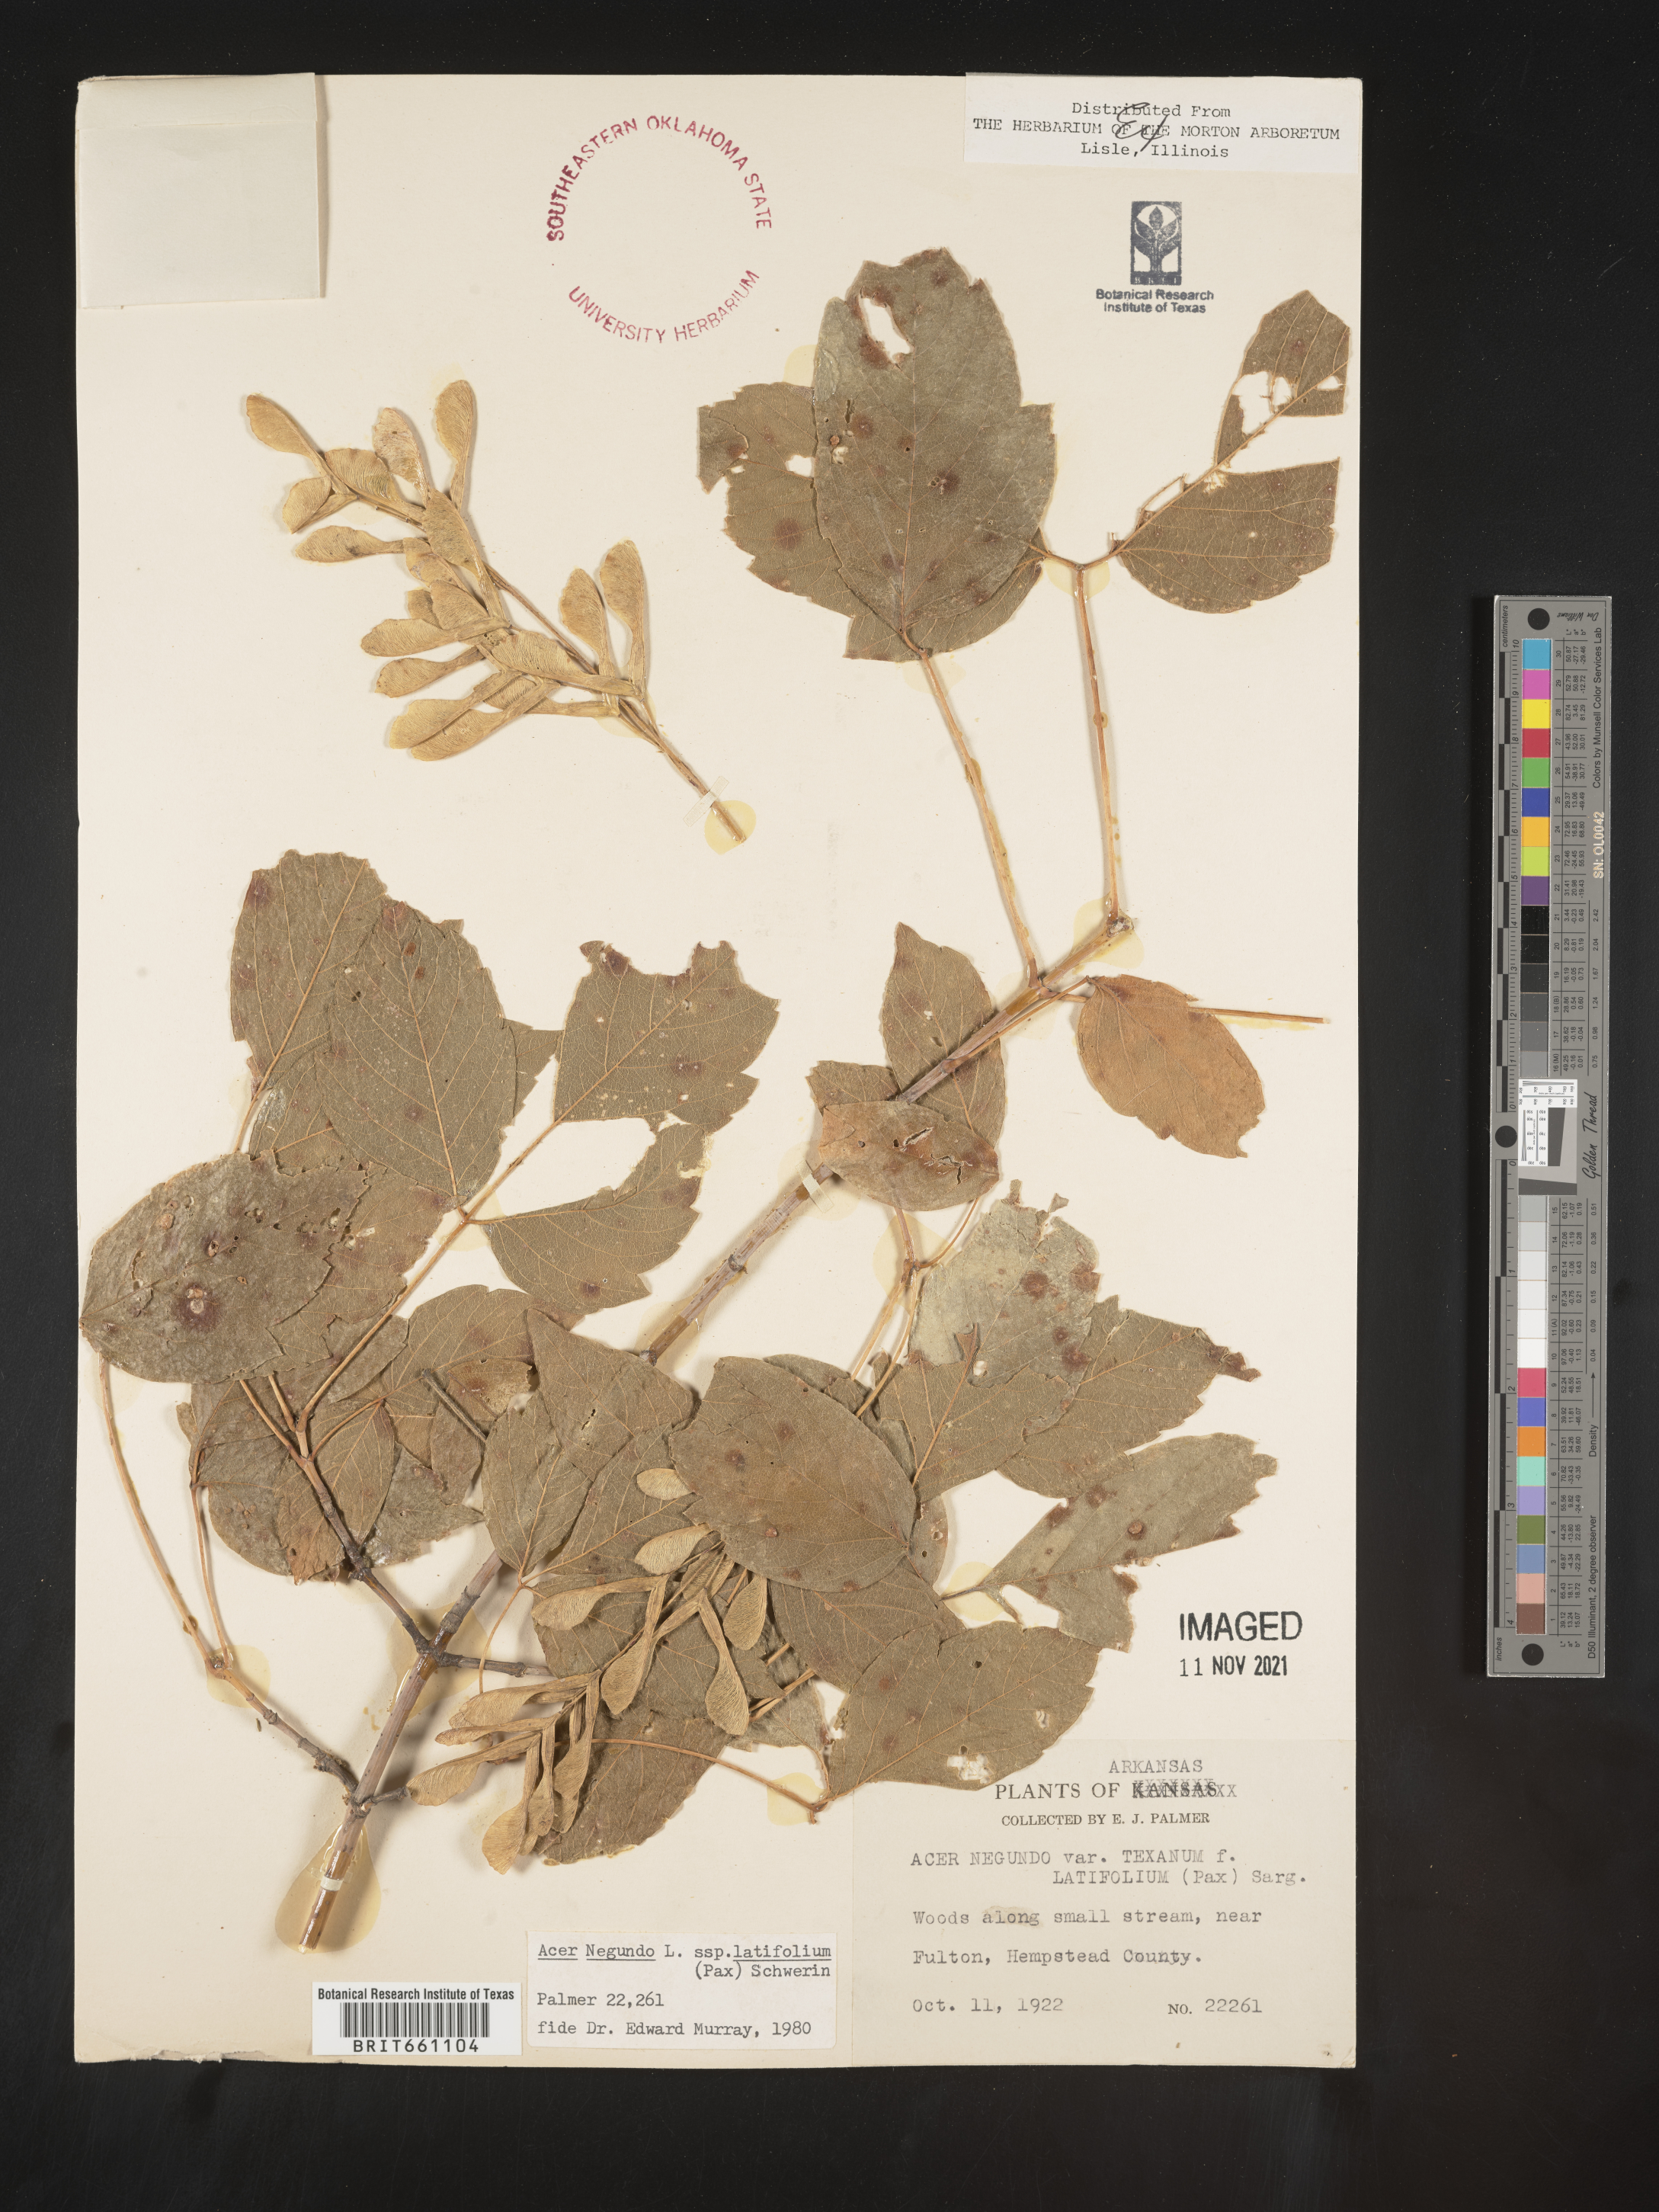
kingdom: Plantae
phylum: Tracheophyta
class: Magnoliopsida
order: Sapindales
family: Sapindaceae
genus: Acer
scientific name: Acer negundo
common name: Ashleaf maple
